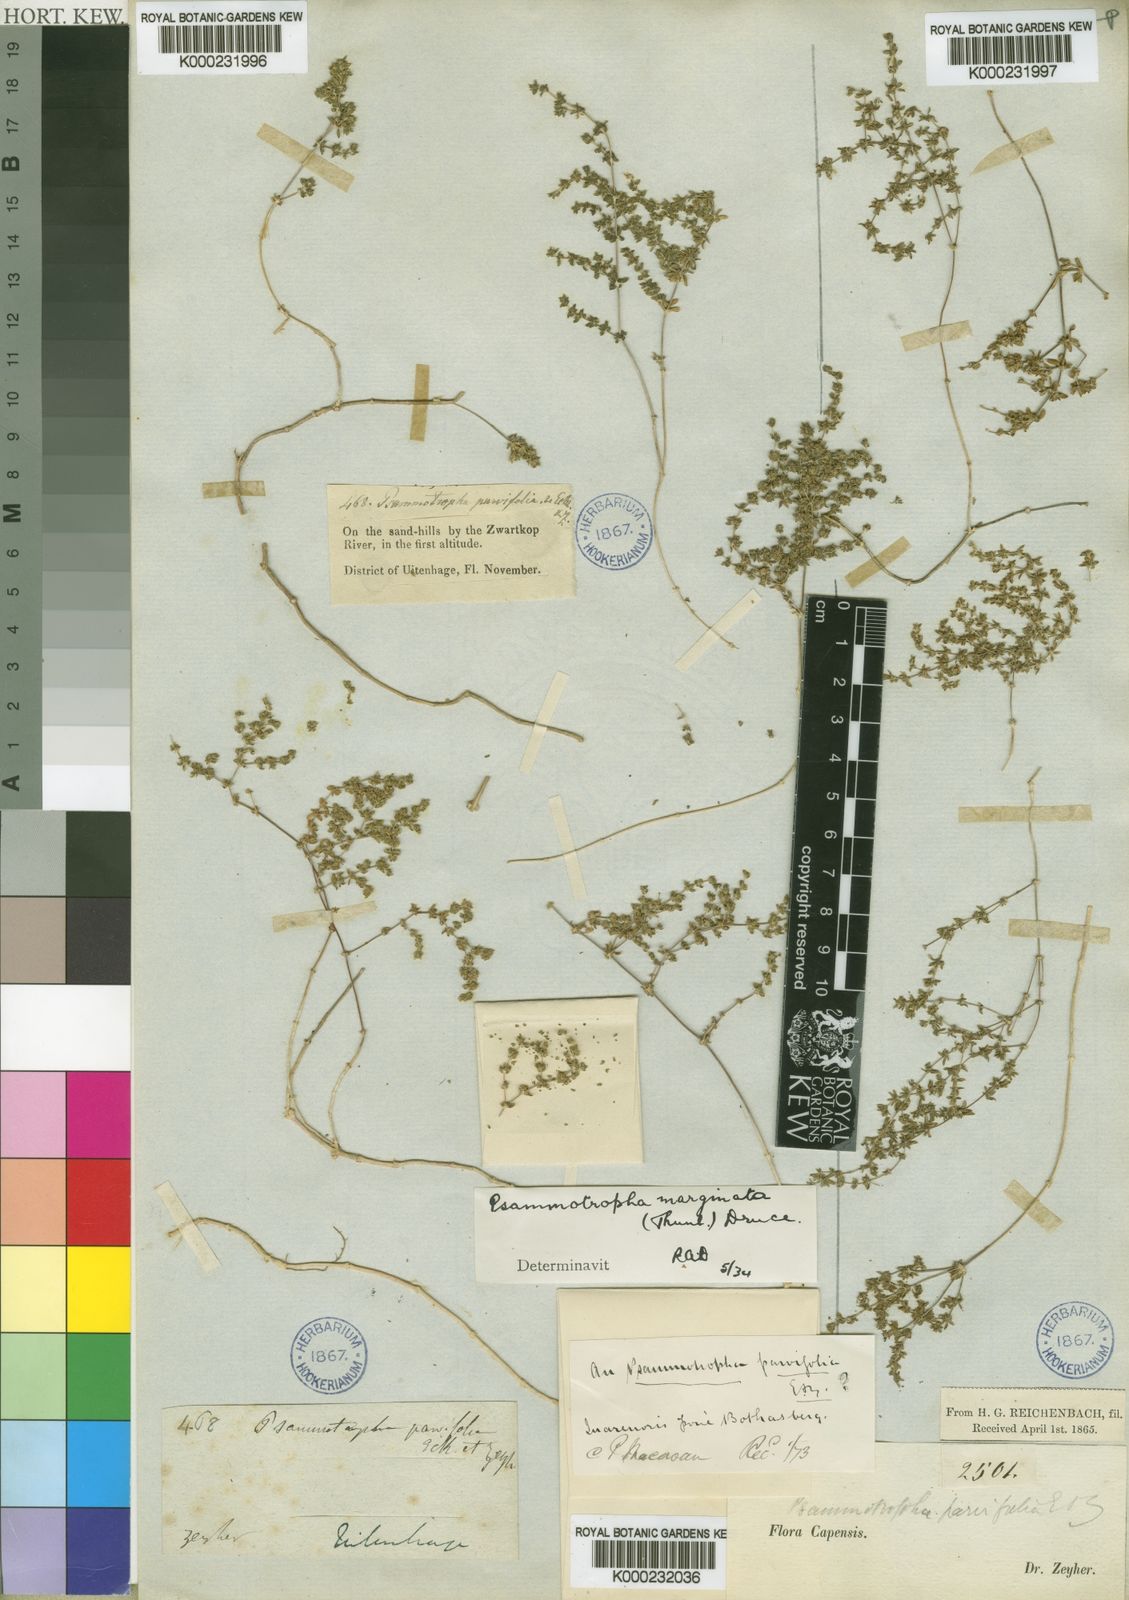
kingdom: Plantae
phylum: Tracheophyta
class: Magnoliopsida
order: Caryophyllales
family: Molluginaceae
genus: Psammotropha
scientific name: Psammotropha marginata
